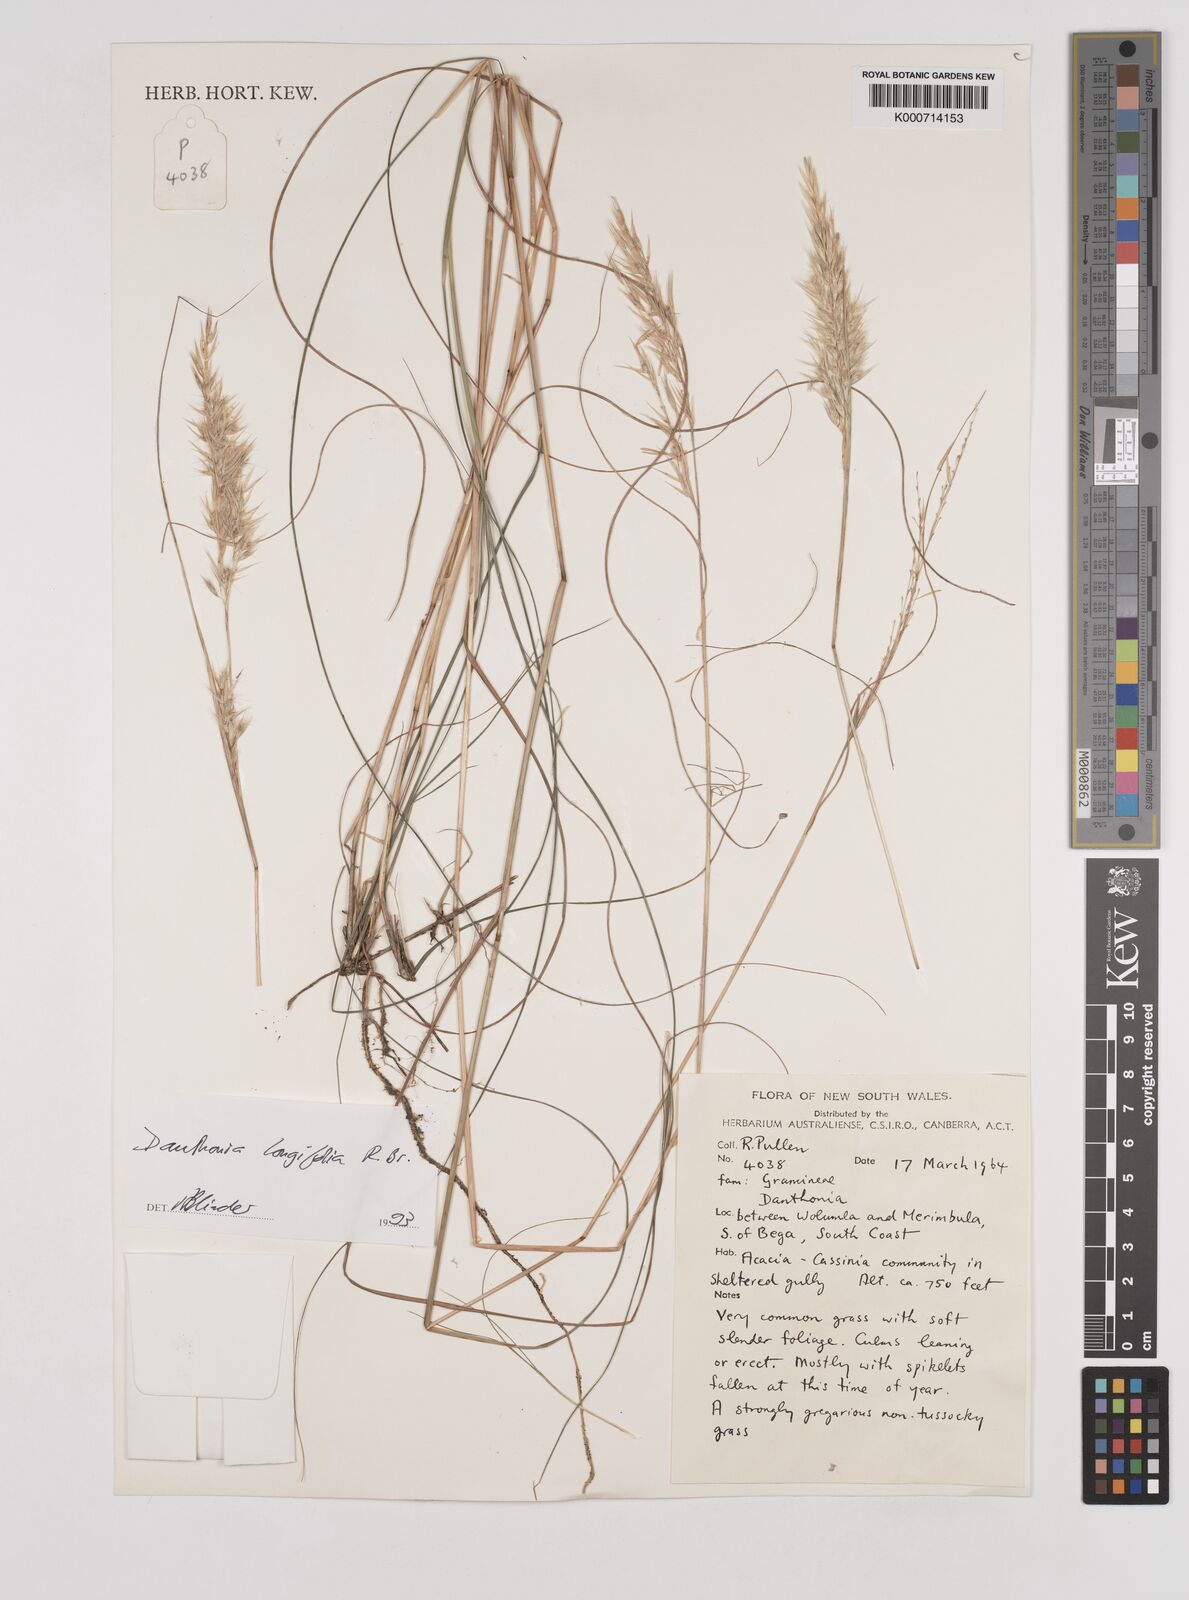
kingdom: Plantae
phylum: Tracheophyta
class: Liliopsida
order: Poales
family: Poaceae
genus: Rytidosperma
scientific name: Rytidosperma
